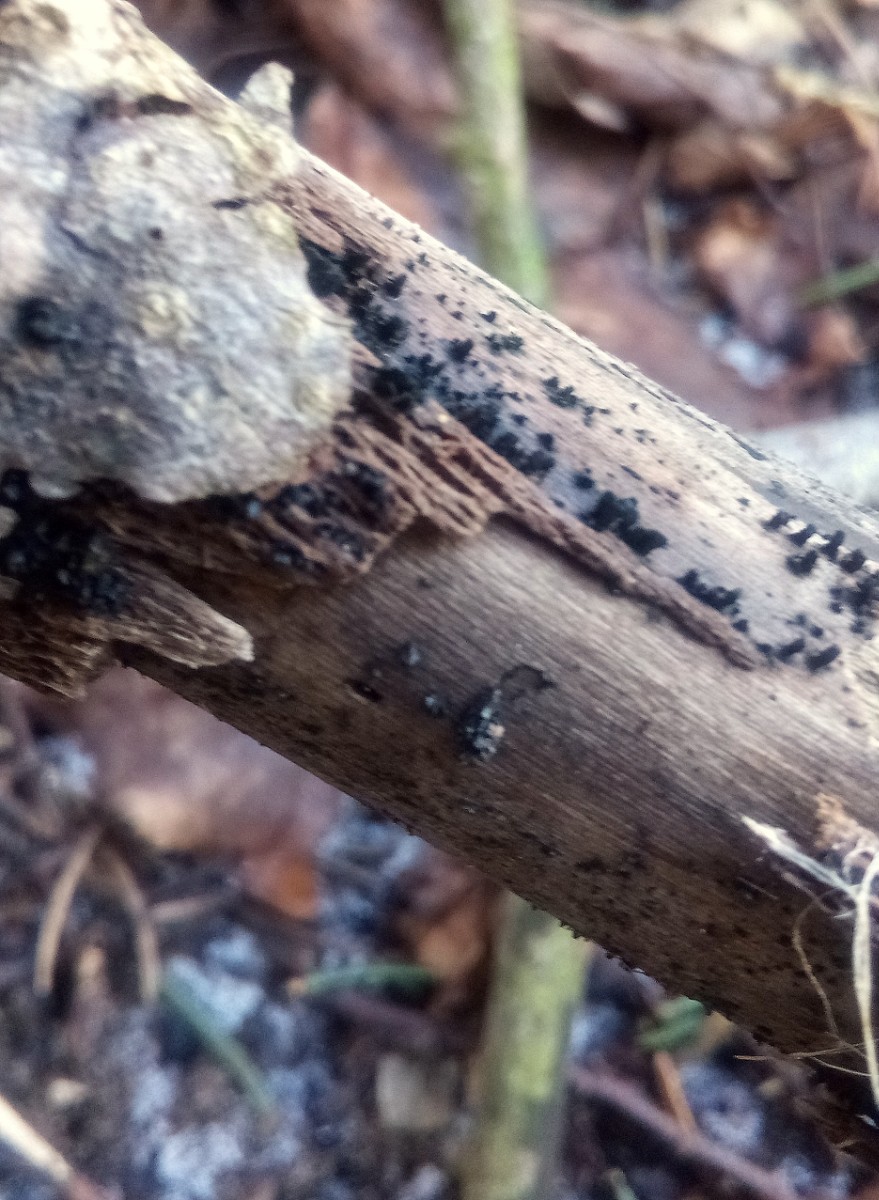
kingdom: Fungi
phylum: Ascomycota
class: Eurotiomycetes
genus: Glyphium
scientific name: Glyphium elatum
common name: kuløkse
